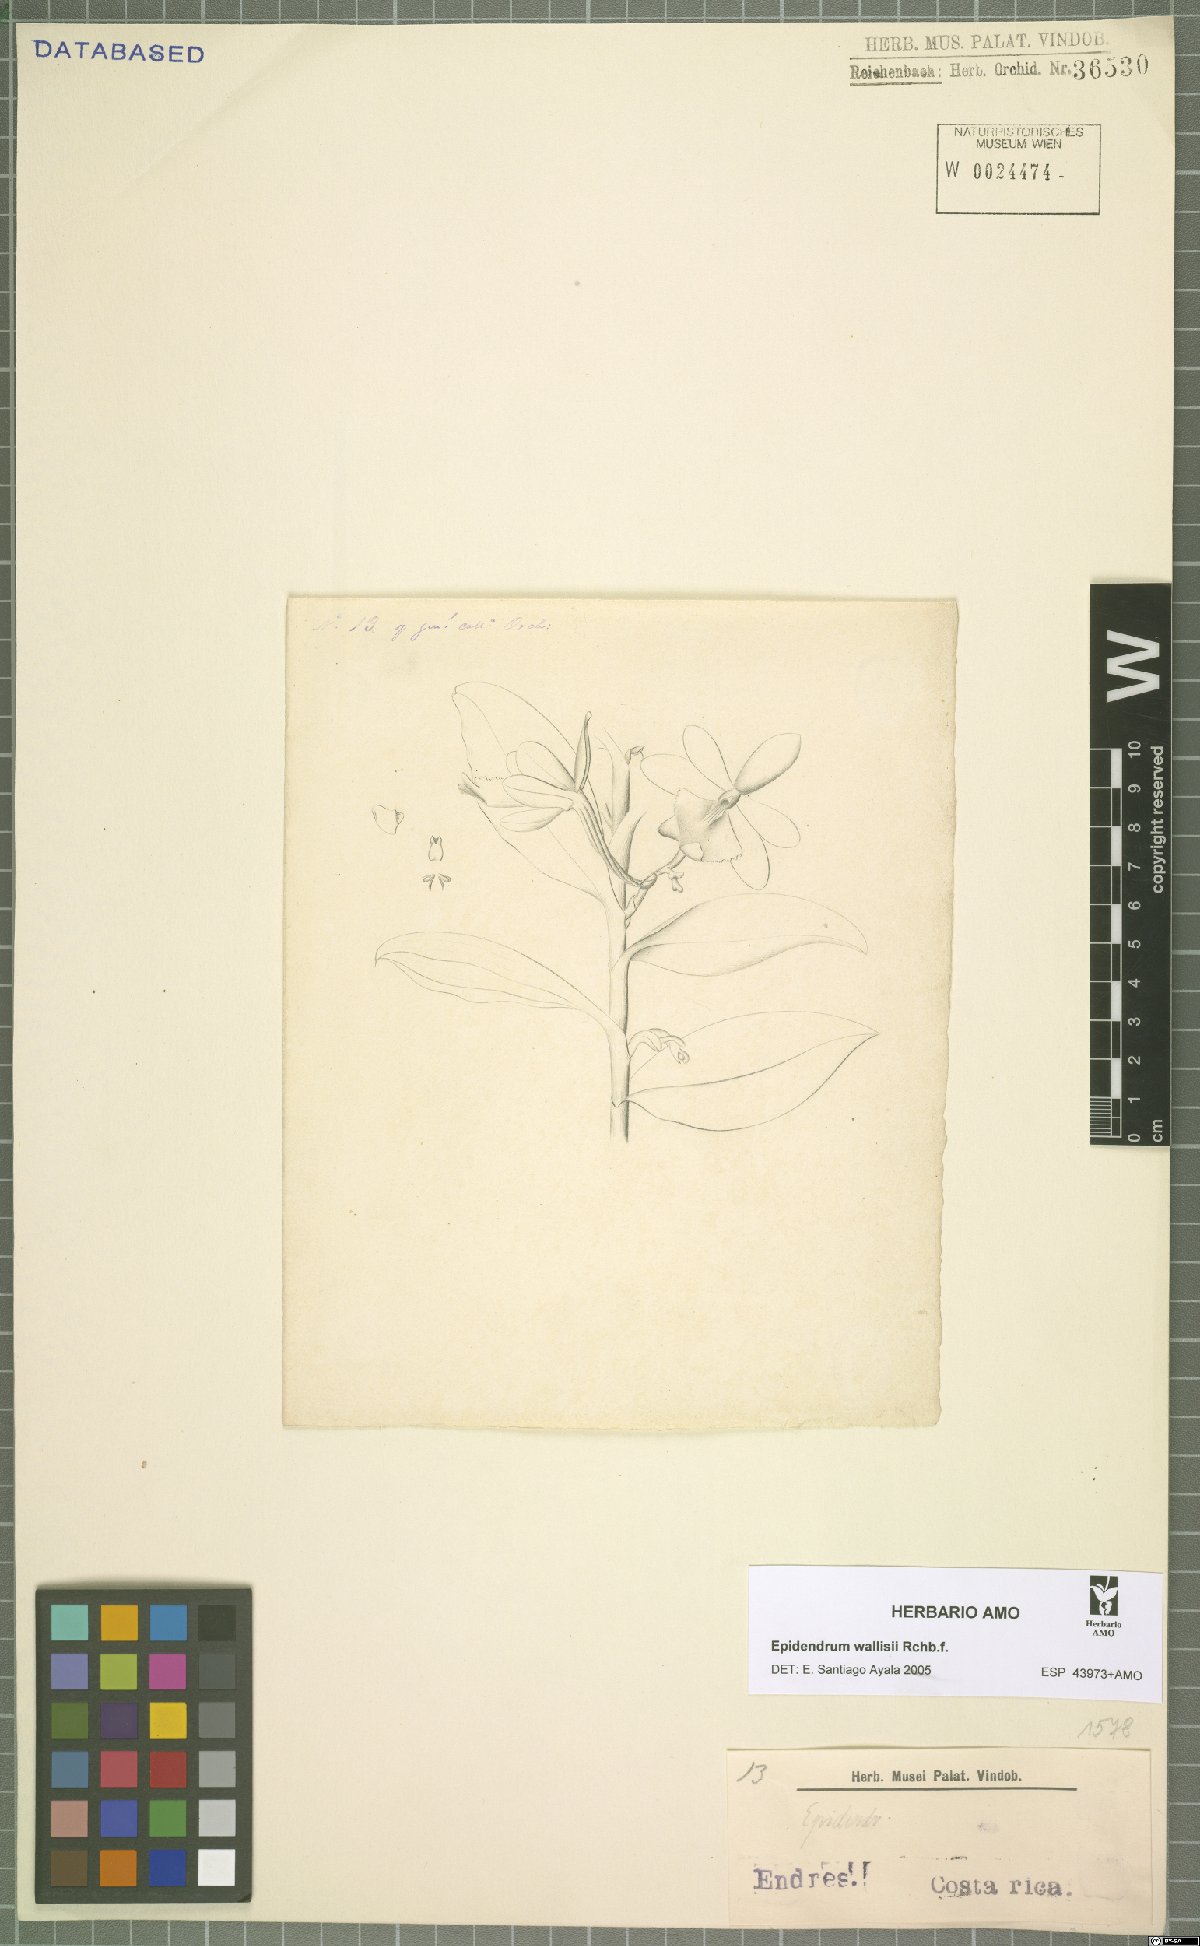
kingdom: Plantae
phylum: Tracheophyta
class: Liliopsida
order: Asparagales
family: Orchidaceae
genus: Epidendrum
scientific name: Epidendrum wallisii
